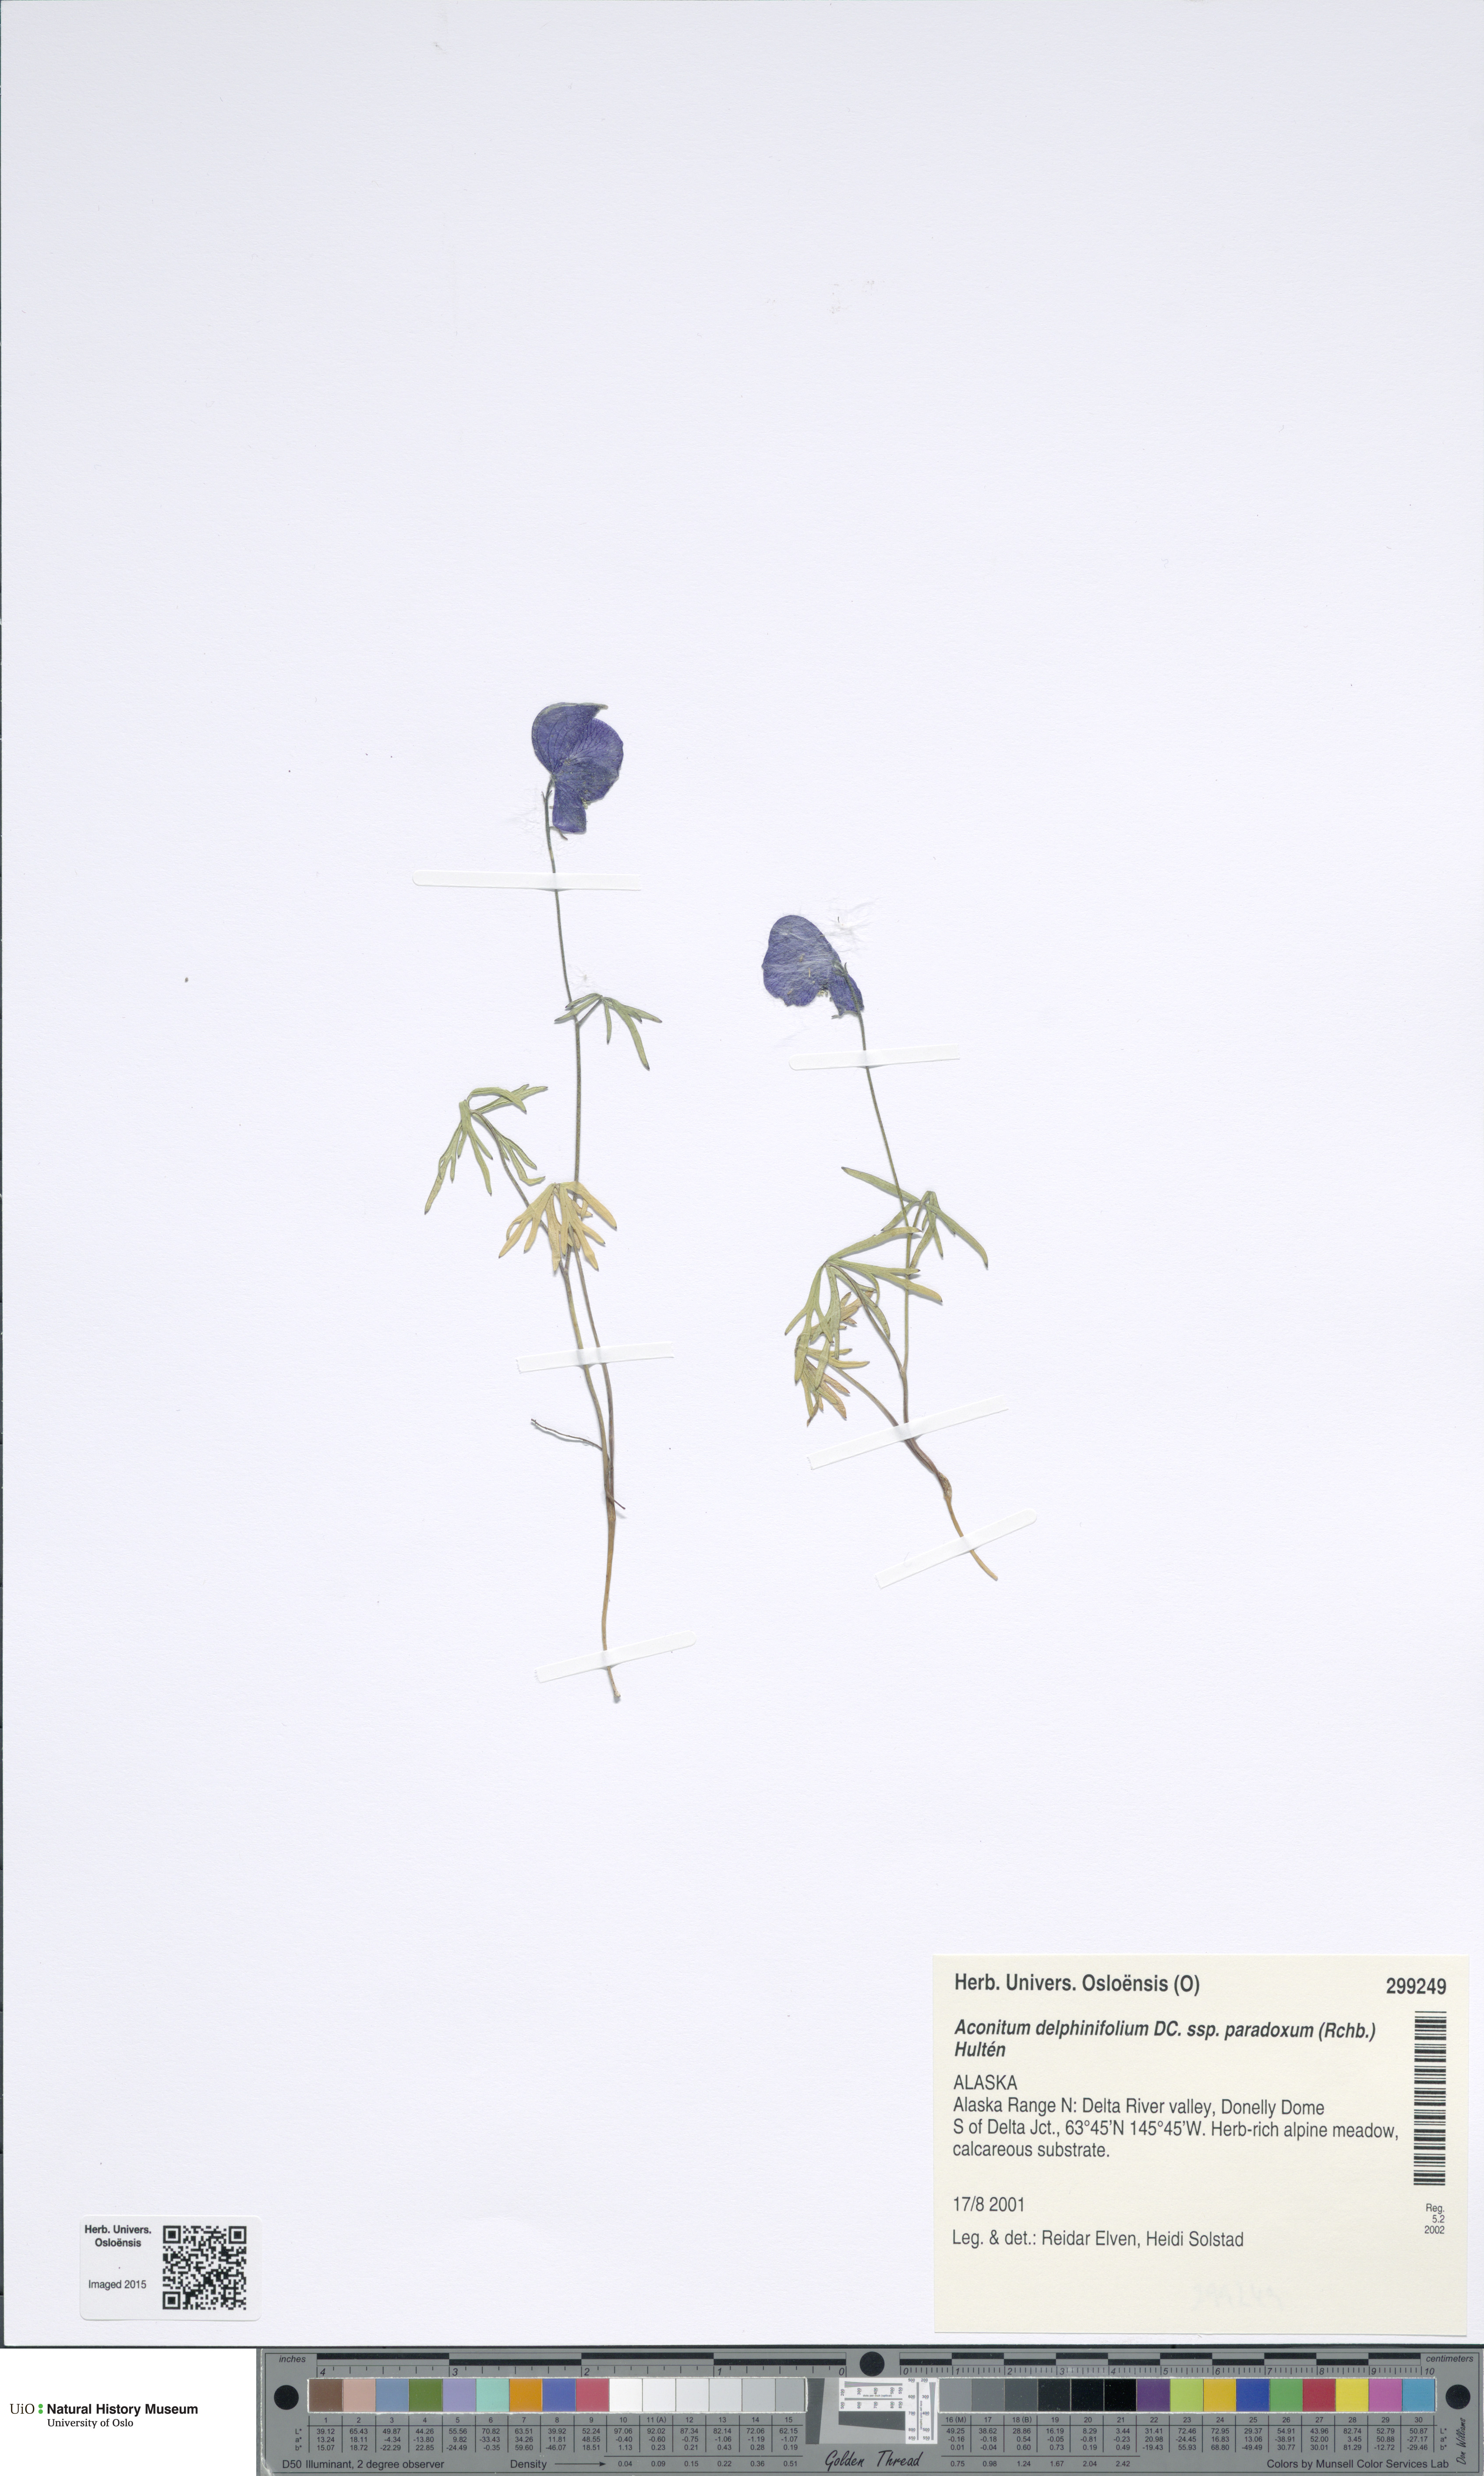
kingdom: Plantae
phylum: Tracheophyta
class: Magnoliopsida
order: Ranunculales
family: Ranunculaceae
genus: Aconitum
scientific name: Aconitum delphinifolium
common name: Larkspur-leaved monkshood
